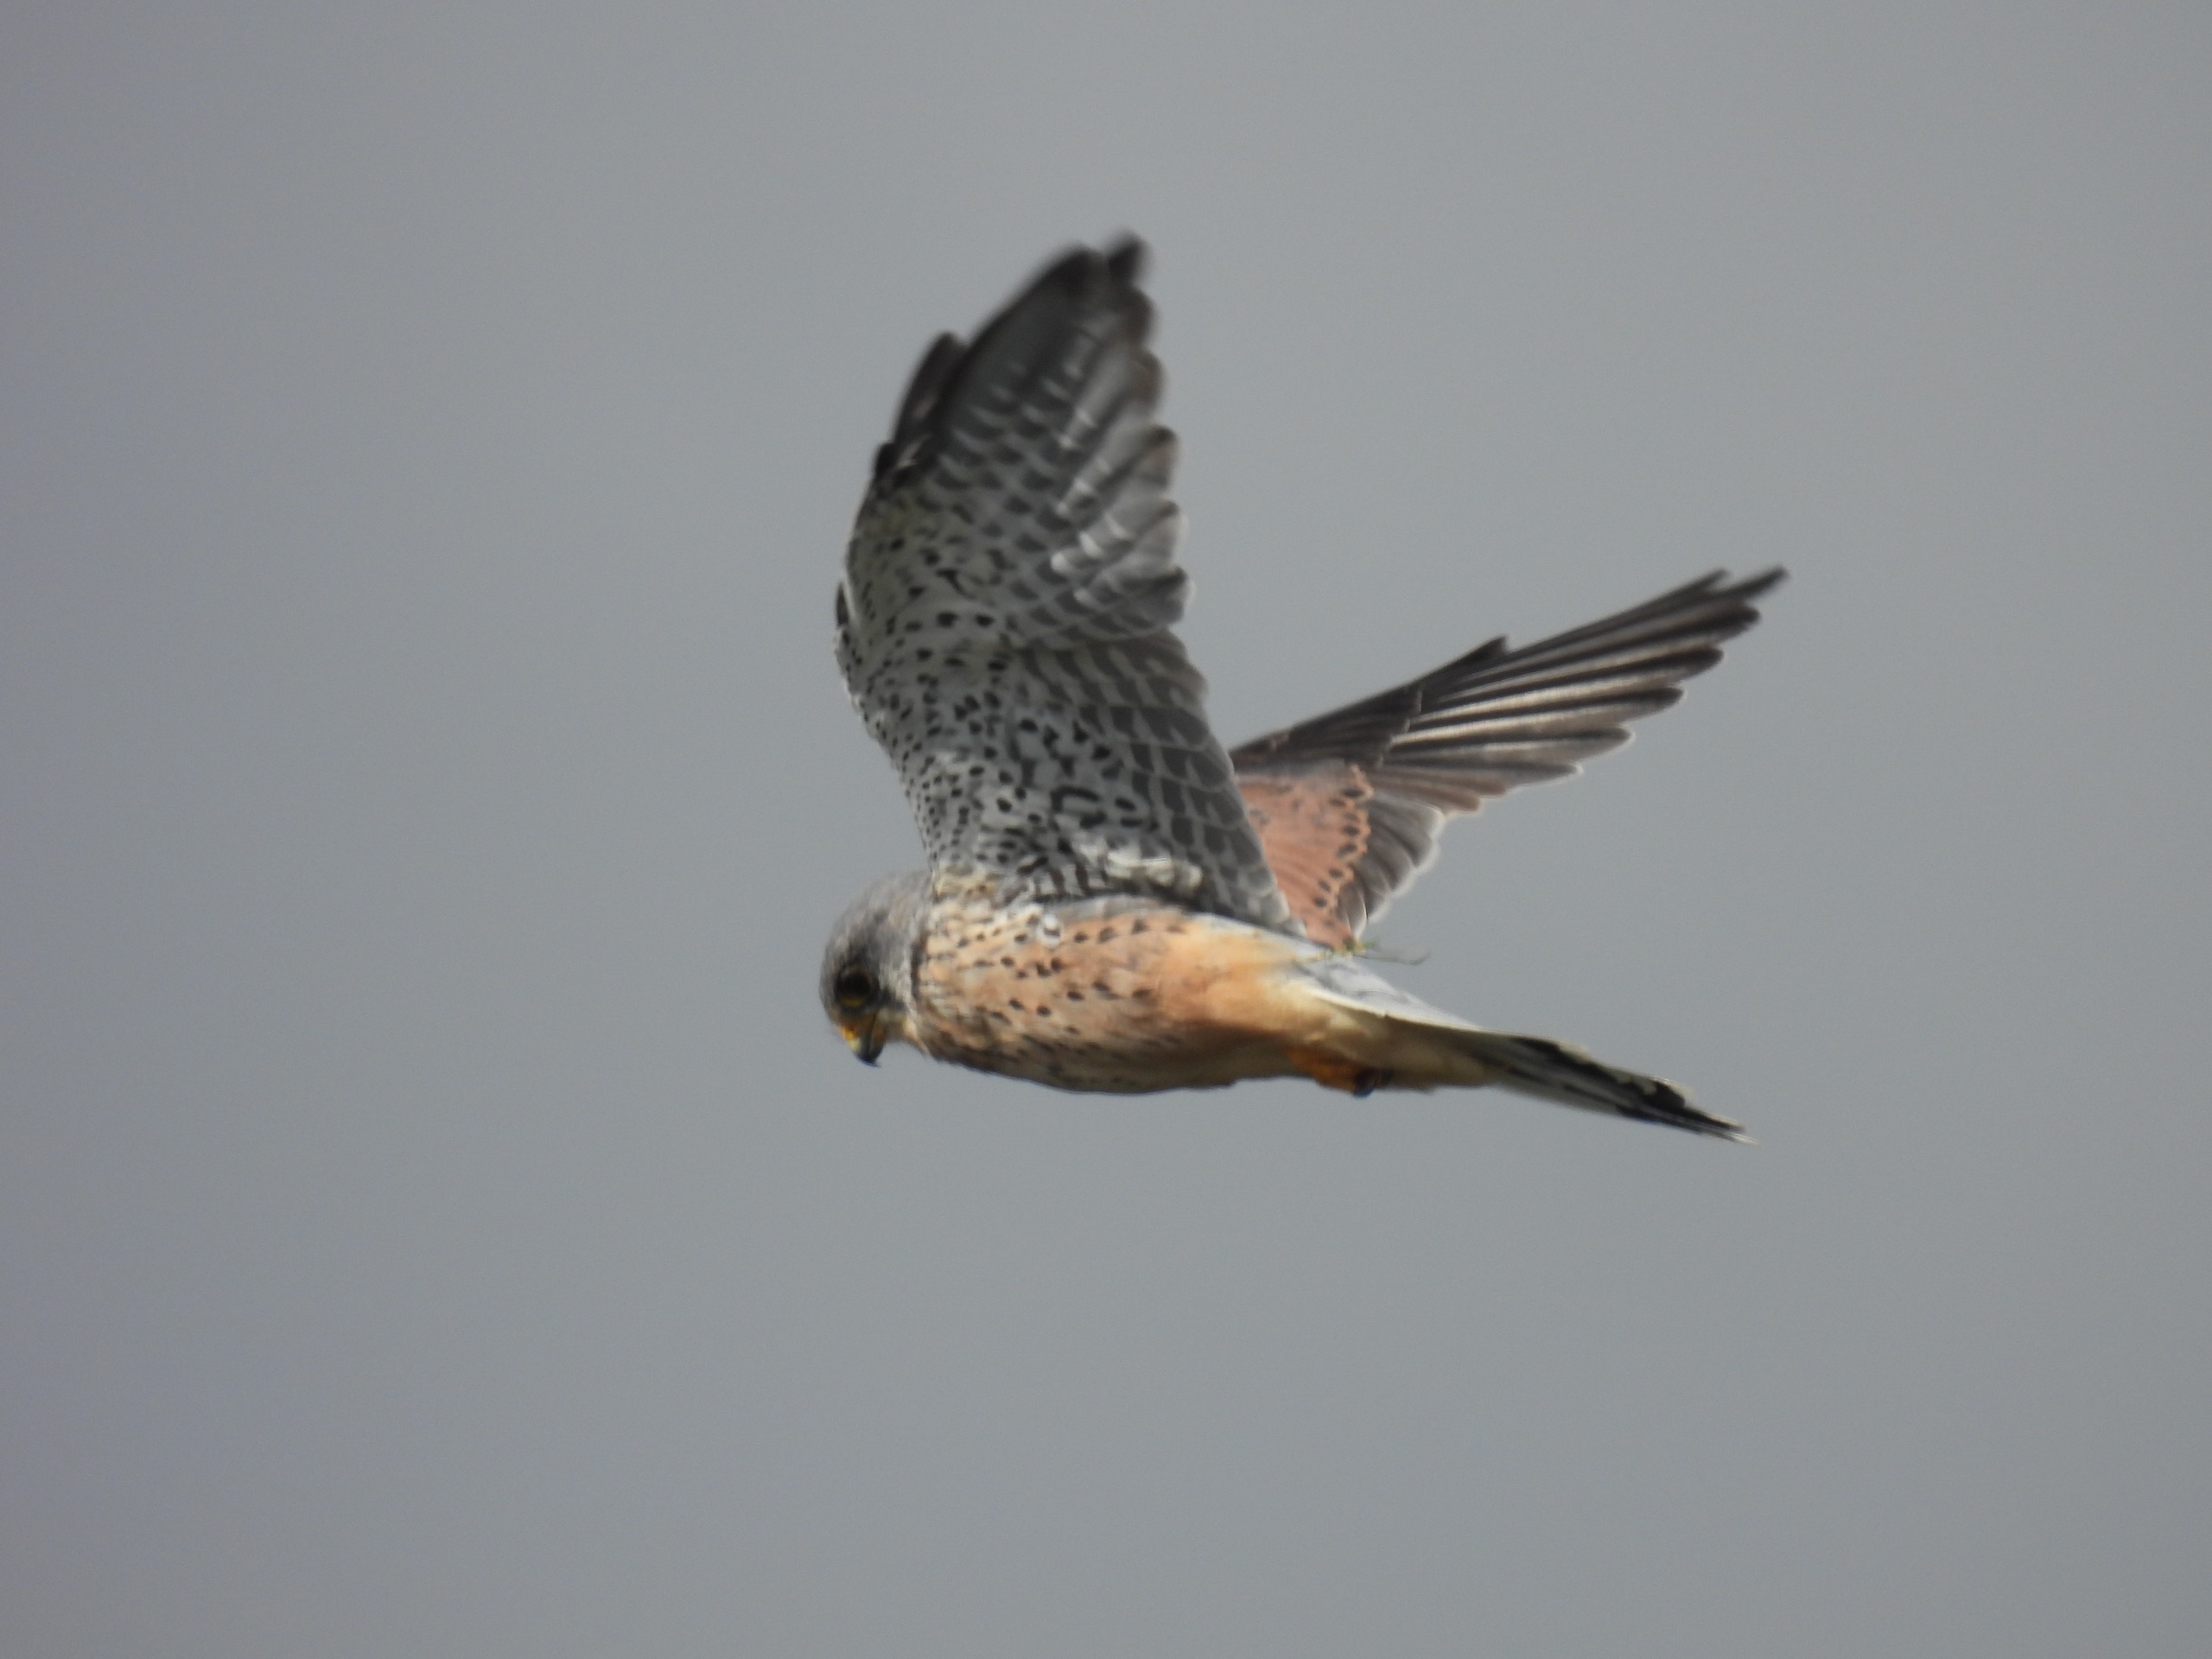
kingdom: Animalia
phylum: Chordata
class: Aves
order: Falconiformes
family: Falconidae
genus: Falco
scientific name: Falco tinnunculus
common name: Tårnfalk
